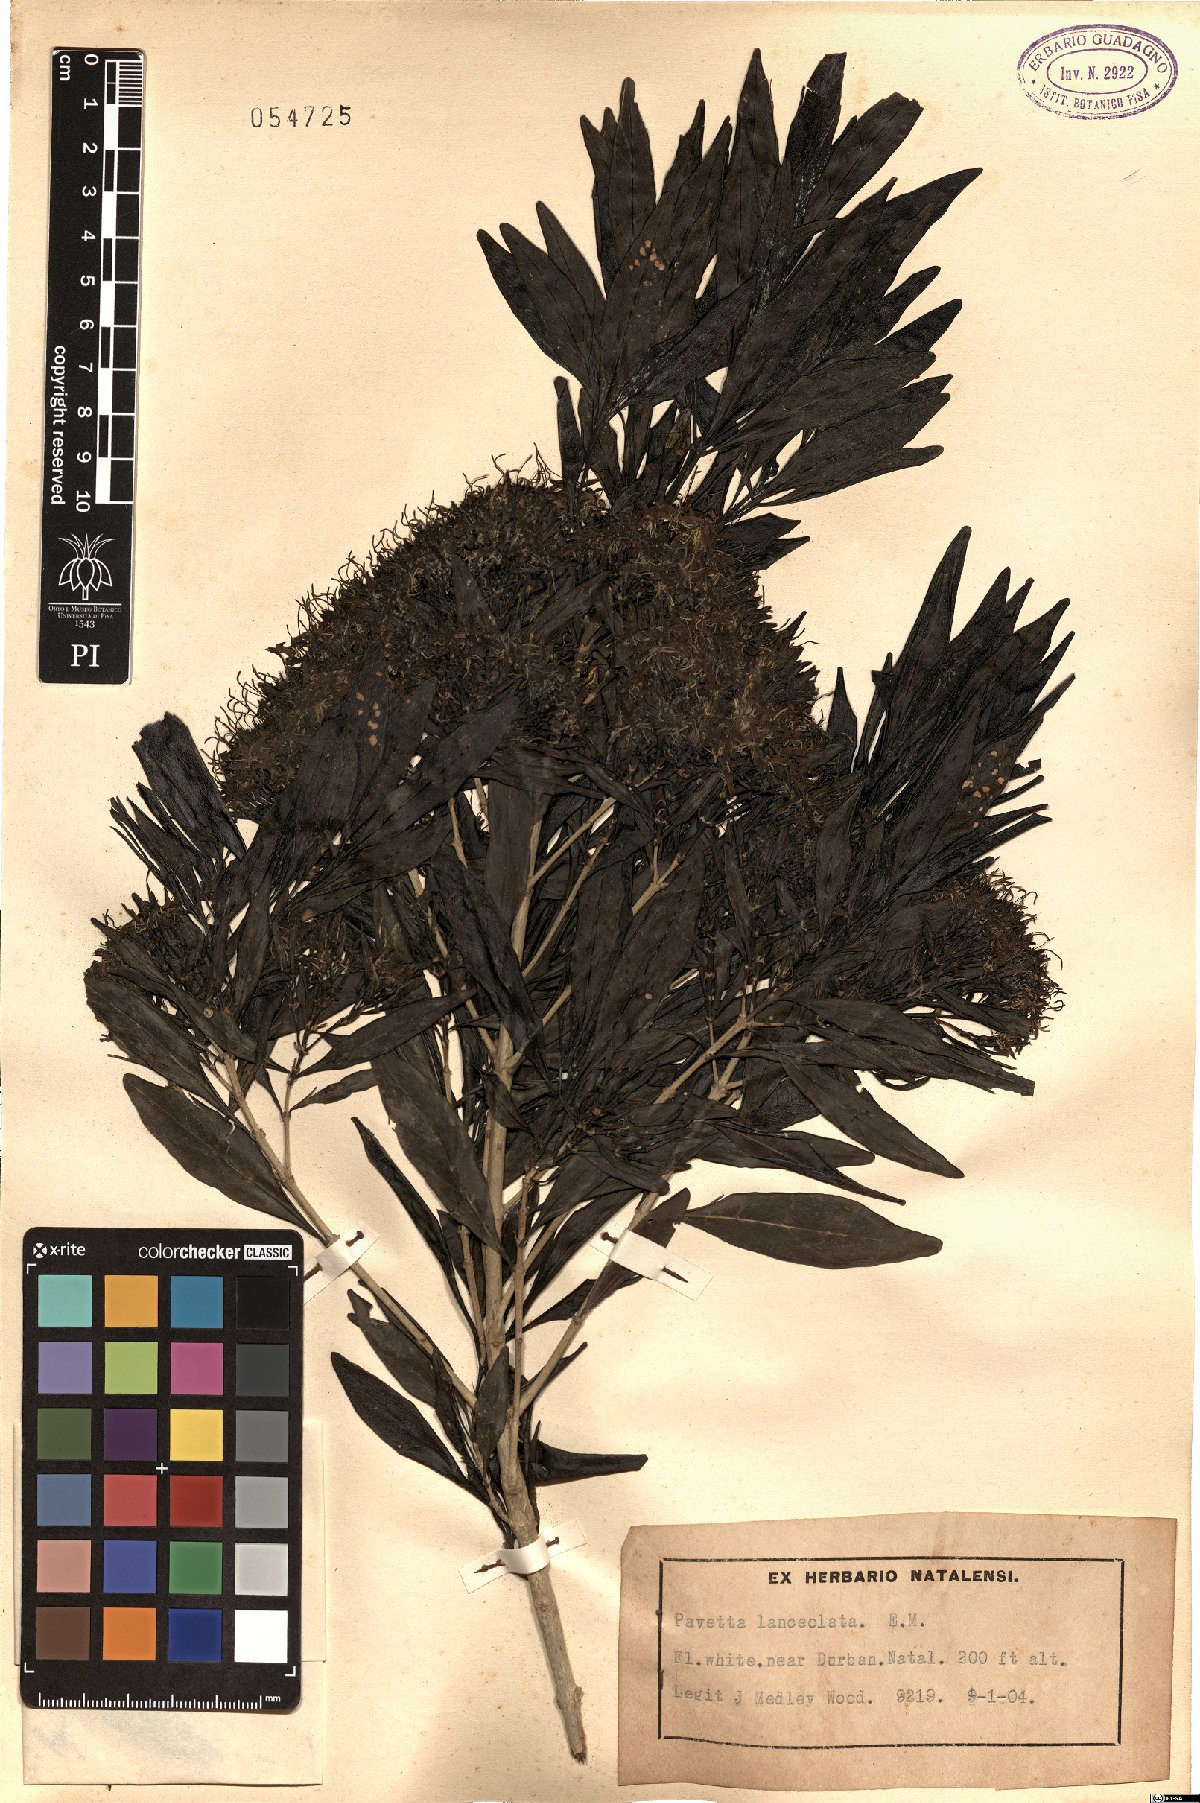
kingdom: Plantae
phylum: Tracheophyta
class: Magnoliopsida
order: Gentianales
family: Rubiaceae
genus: Pavetta
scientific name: Pavetta lanceolata
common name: Weeping brides-bush
